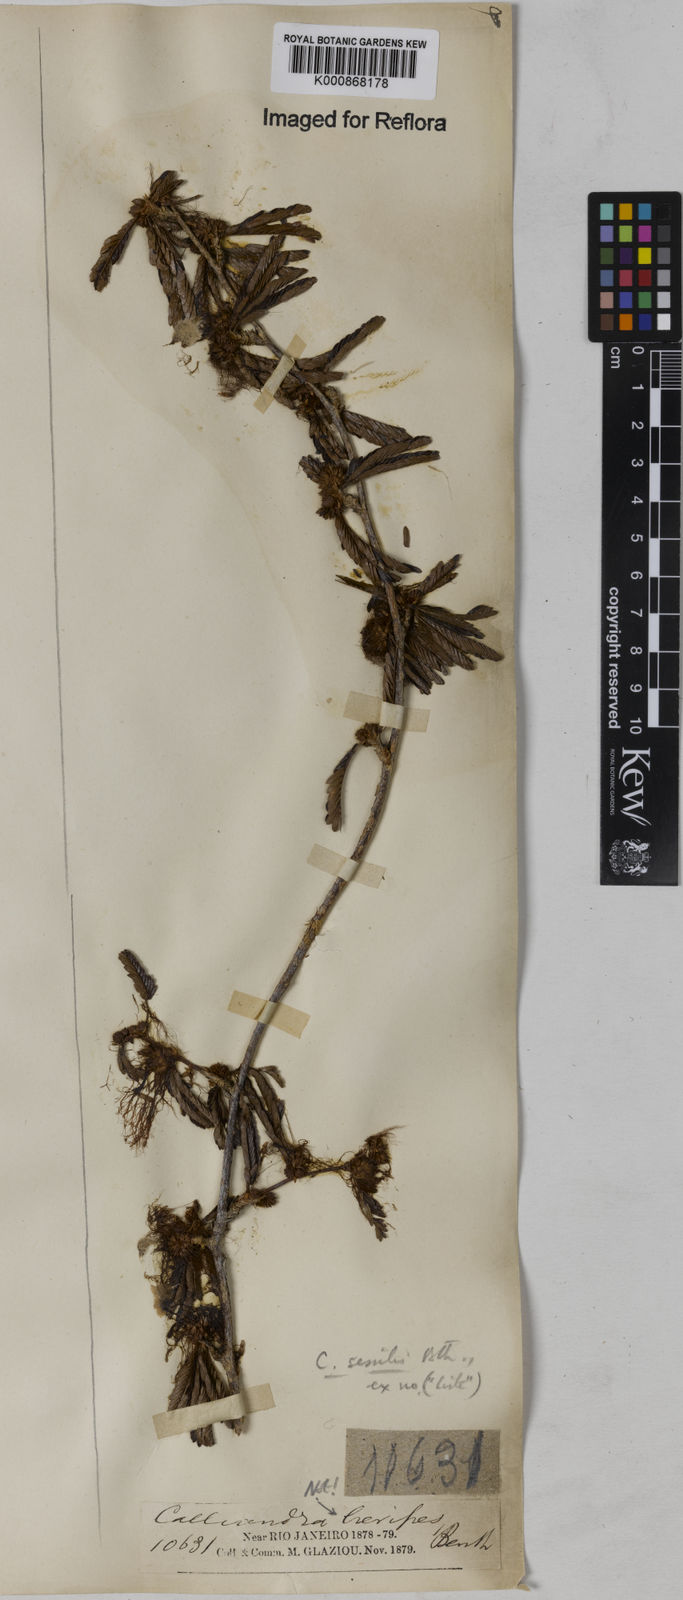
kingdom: Plantae
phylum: Tracheophyta
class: Magnoliopsida
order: Fabales
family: Fabaceae
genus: Calliandra
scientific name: Calliandra sessilis
